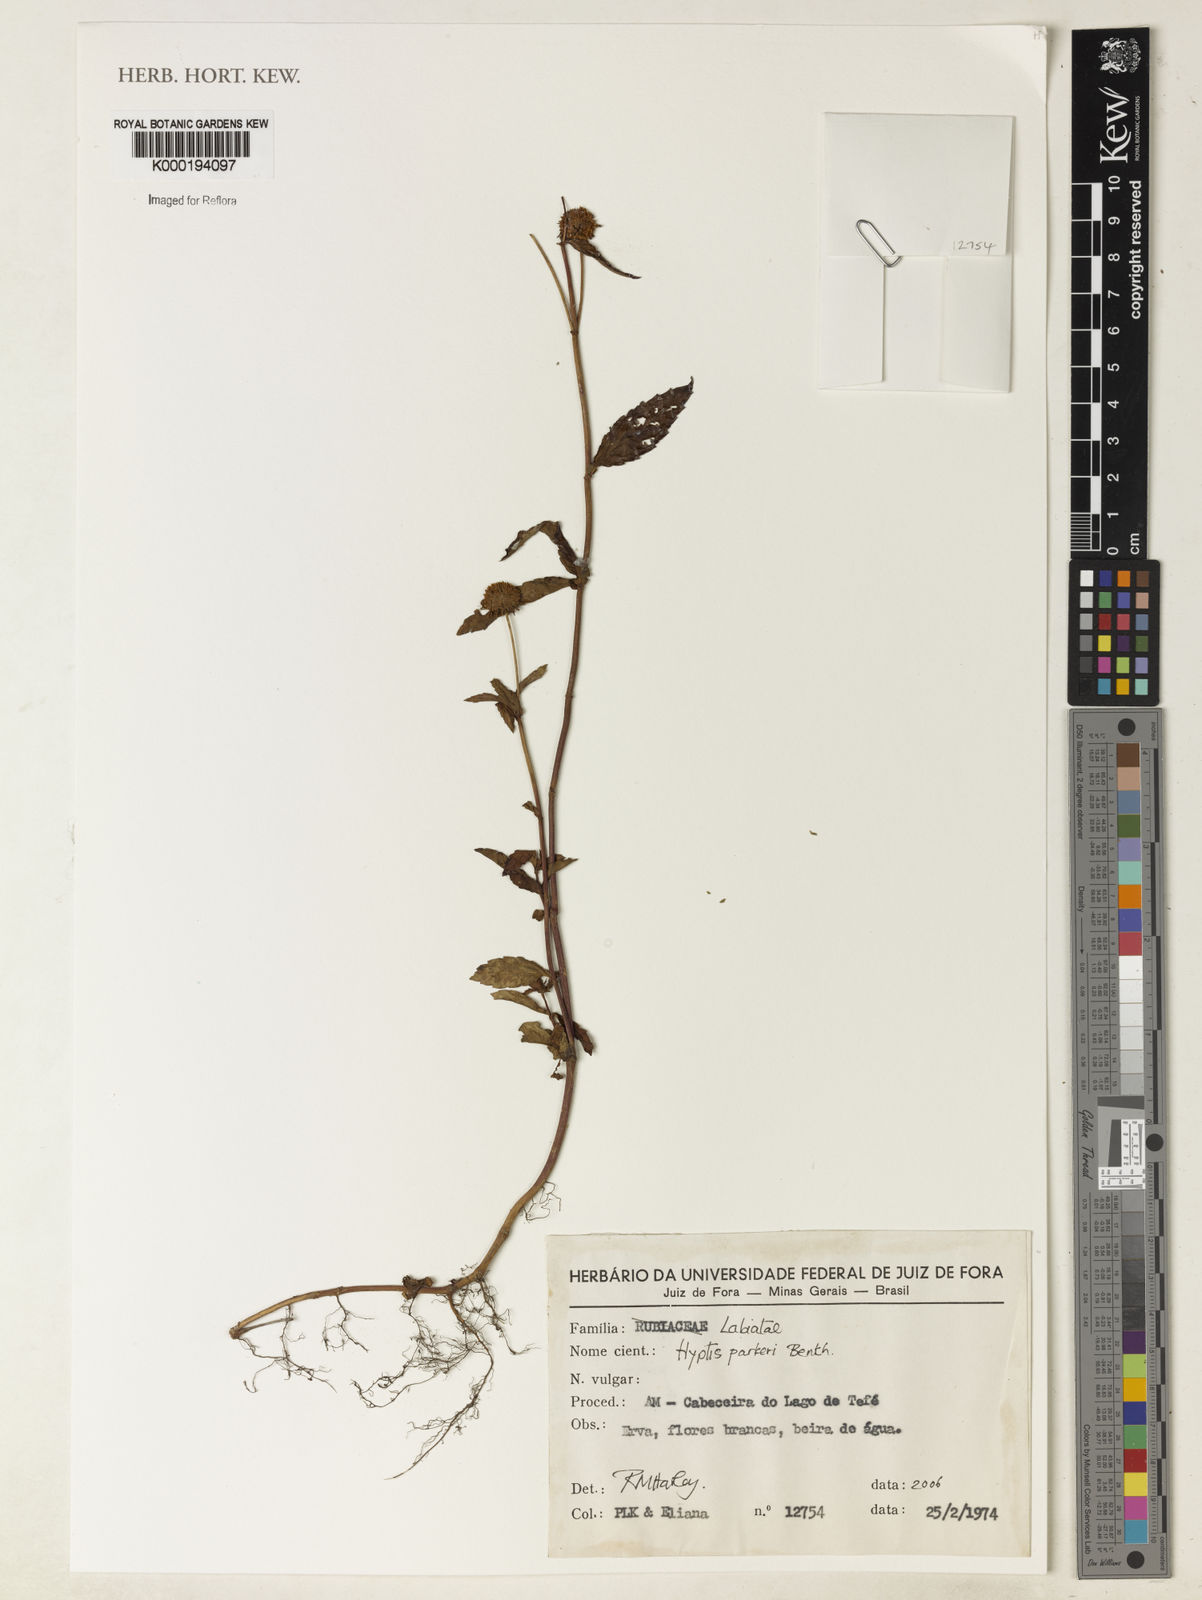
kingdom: Plantae
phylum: Tracheophyta
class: Magnoliopsida
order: Lamiales
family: Lamiaceae
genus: Hyptis
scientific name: Hyptis parkeri
